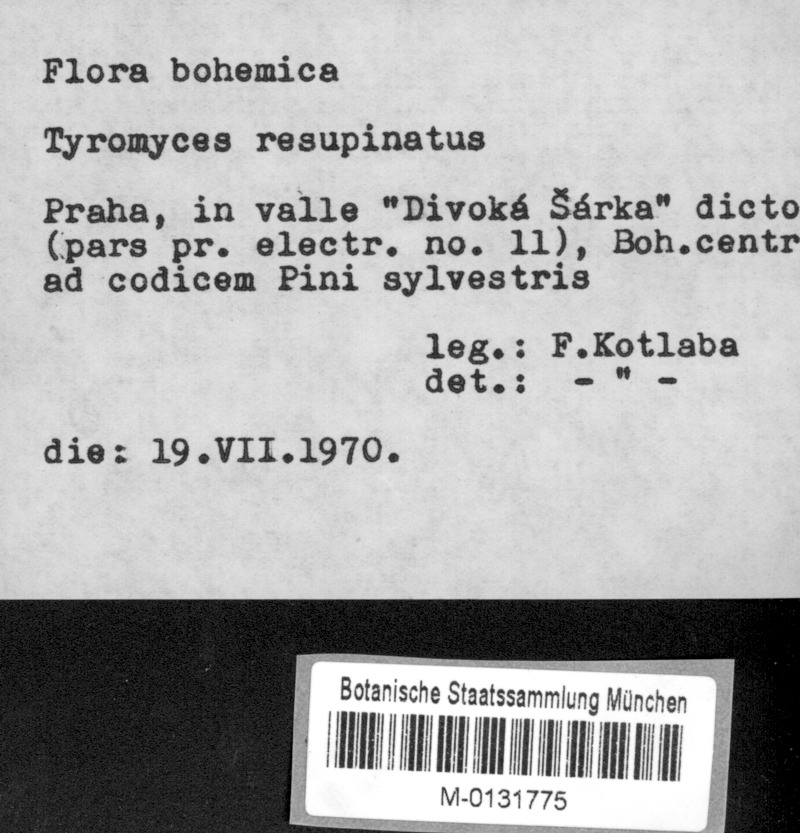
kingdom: Plantae
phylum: Tracheophyta
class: Pinopsida
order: Pinales
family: Pinaceae
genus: Pinus
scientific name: Pinus sylvestris
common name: Scots pine
